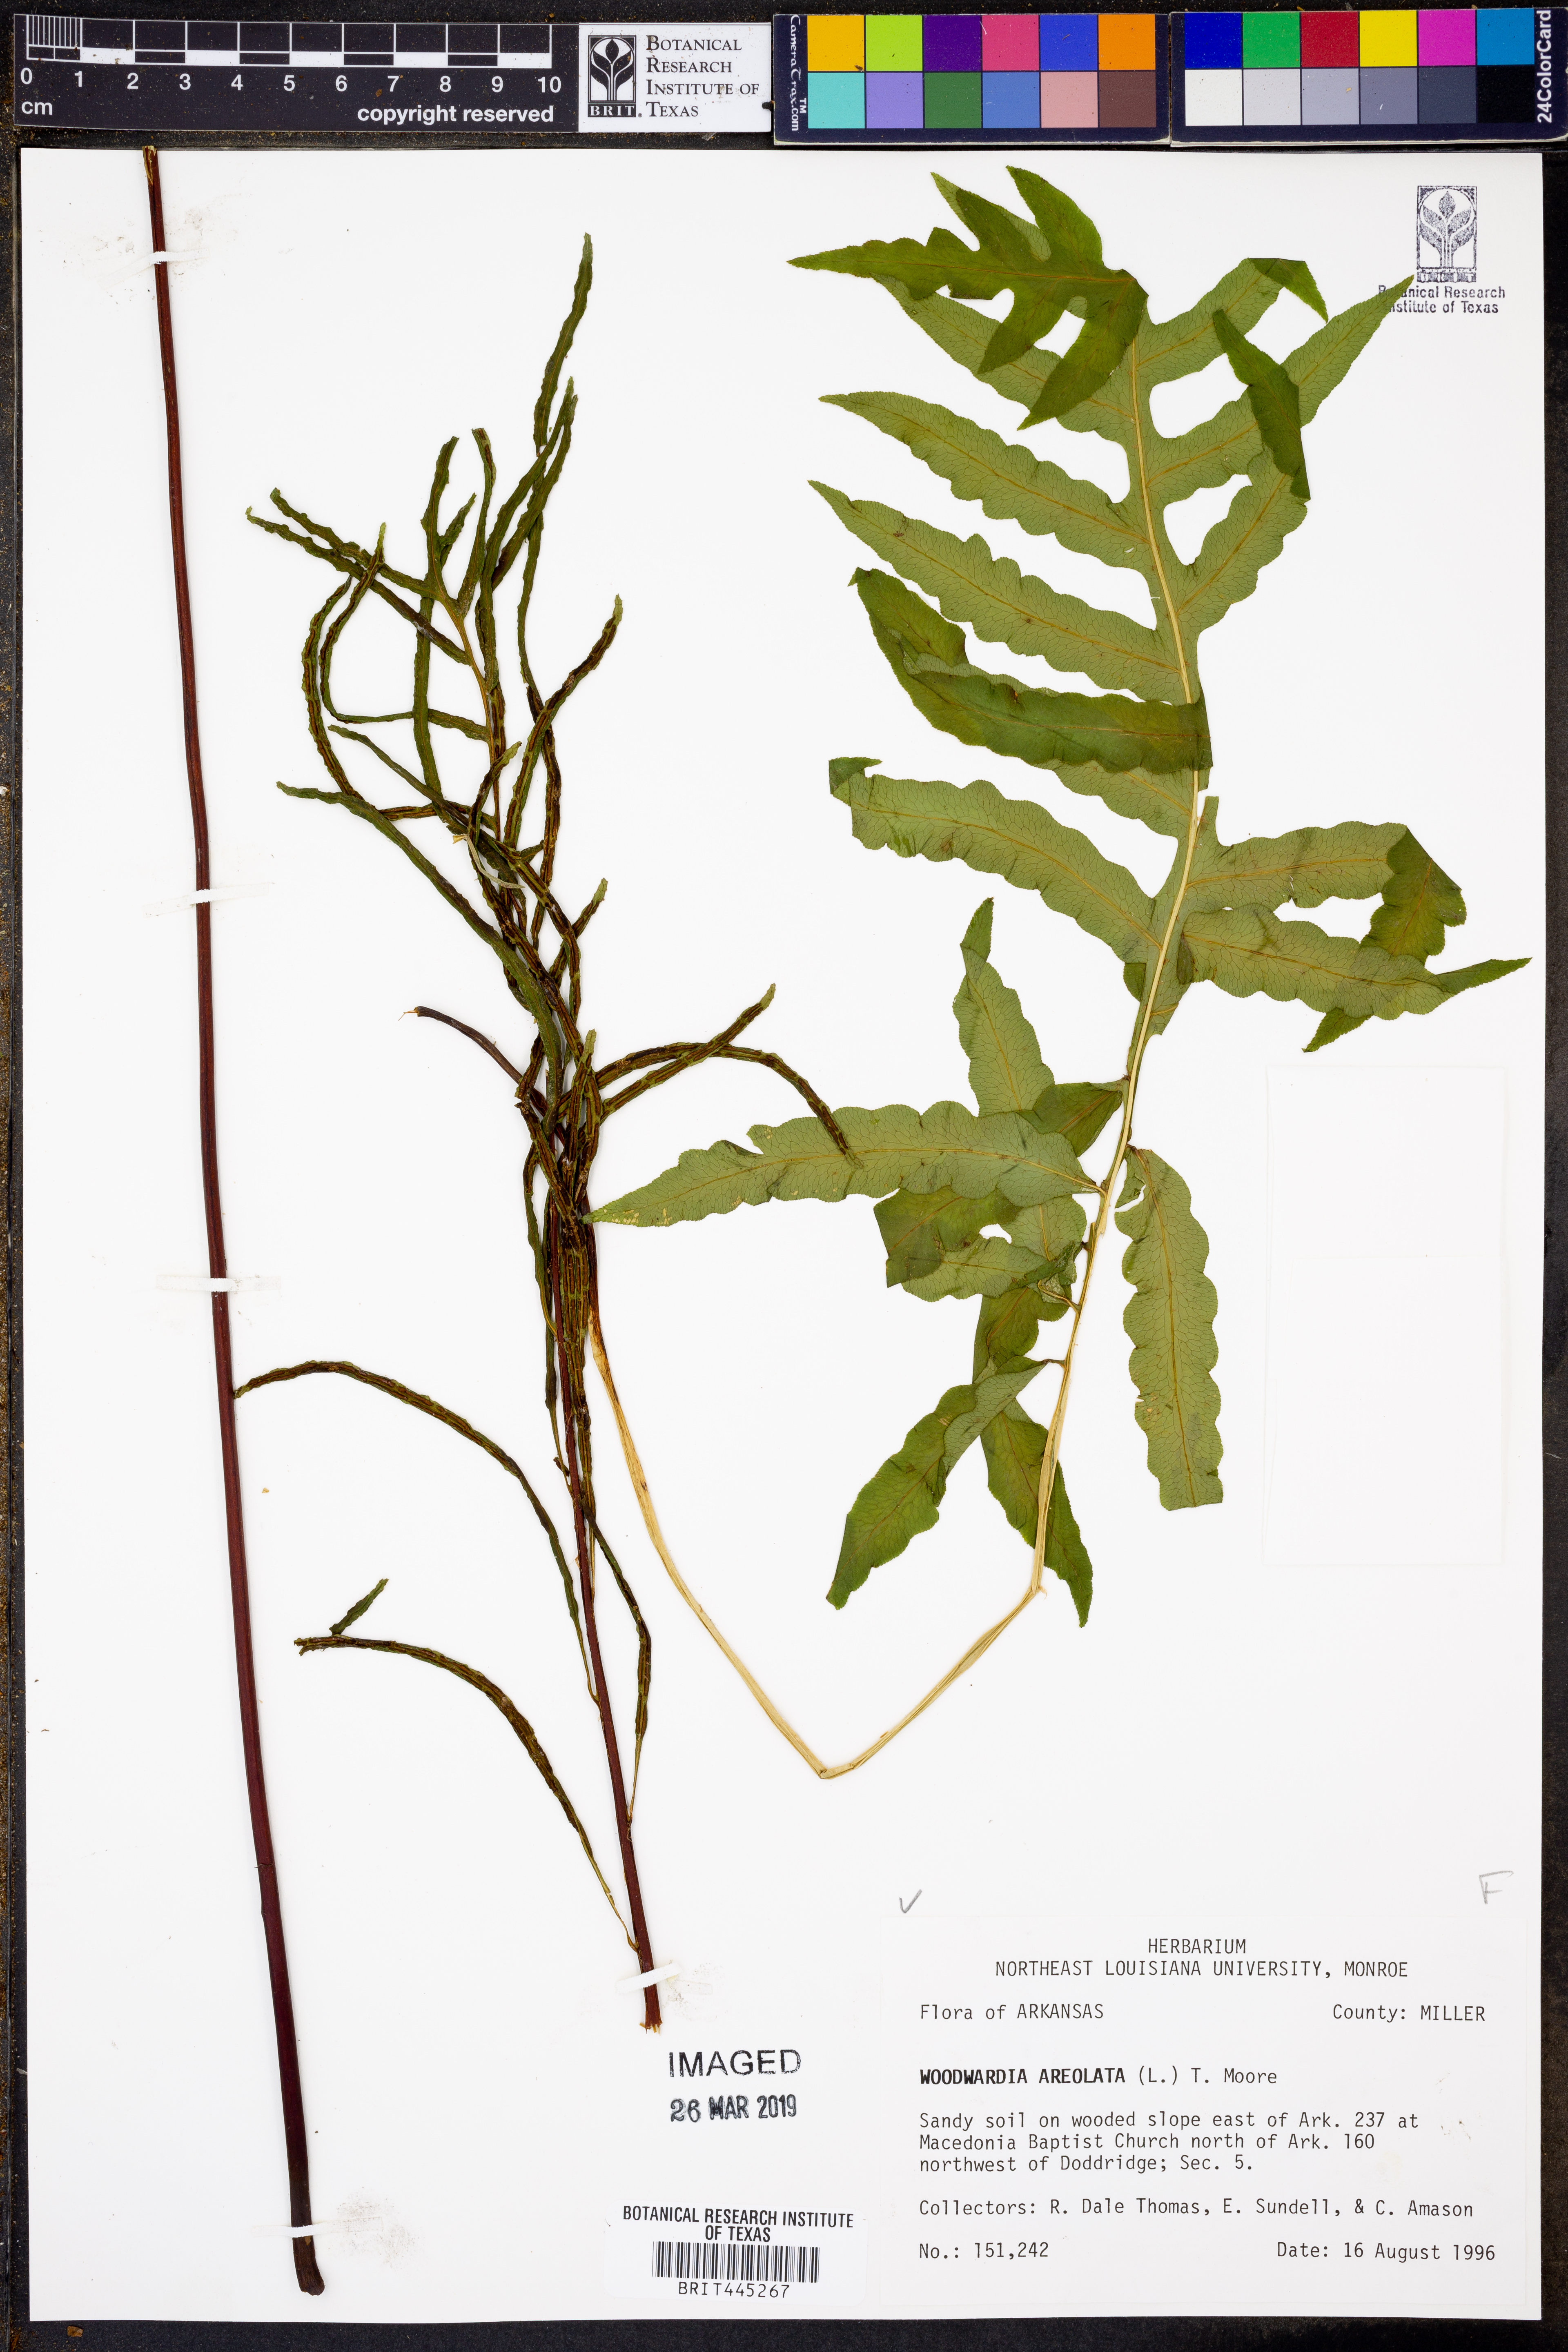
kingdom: Plantae
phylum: Tracheophyta
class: Polypodiopsida
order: Polypodiales
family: Blechnaceae
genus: Lorinseria
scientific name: Lorinseria areolata
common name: Dwarf chain fern
